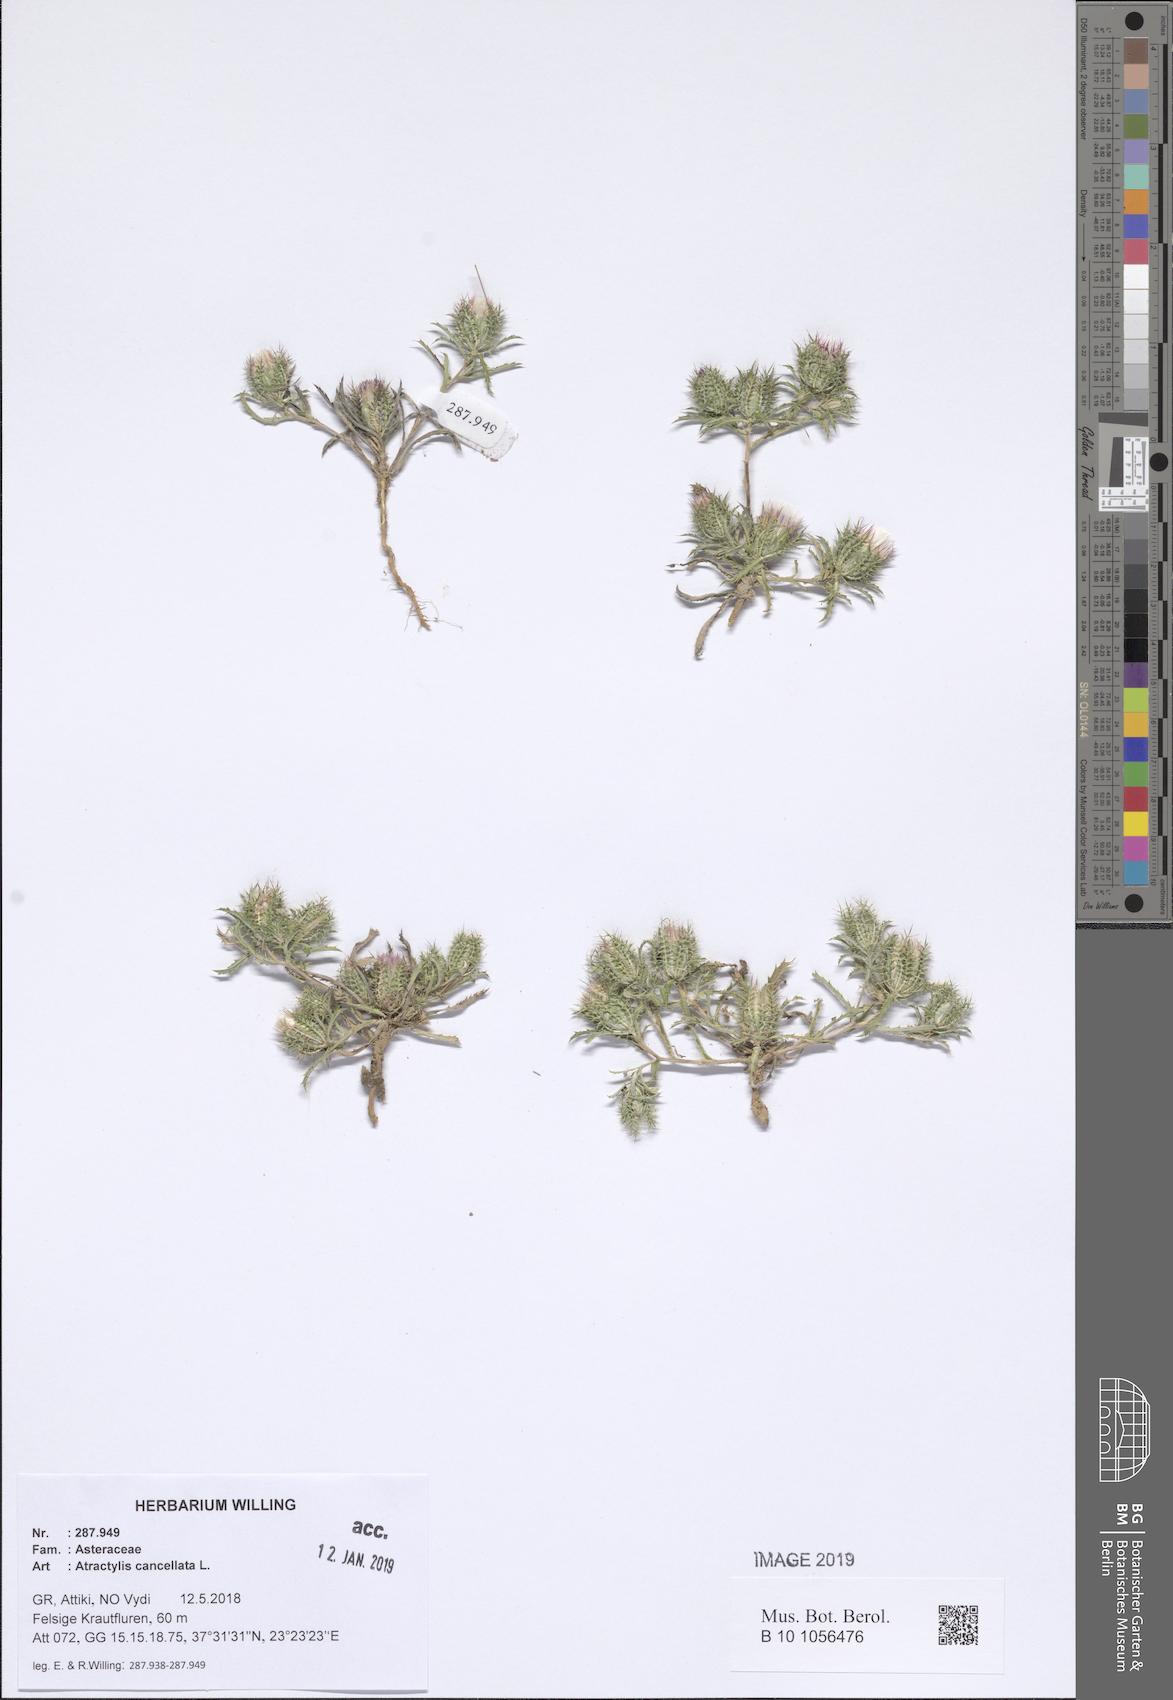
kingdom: Plantae
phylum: Tracheophyta
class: Magnoliopsida
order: Asterales
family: Asteraceae
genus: Atractylis
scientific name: Atractylis cancellata
